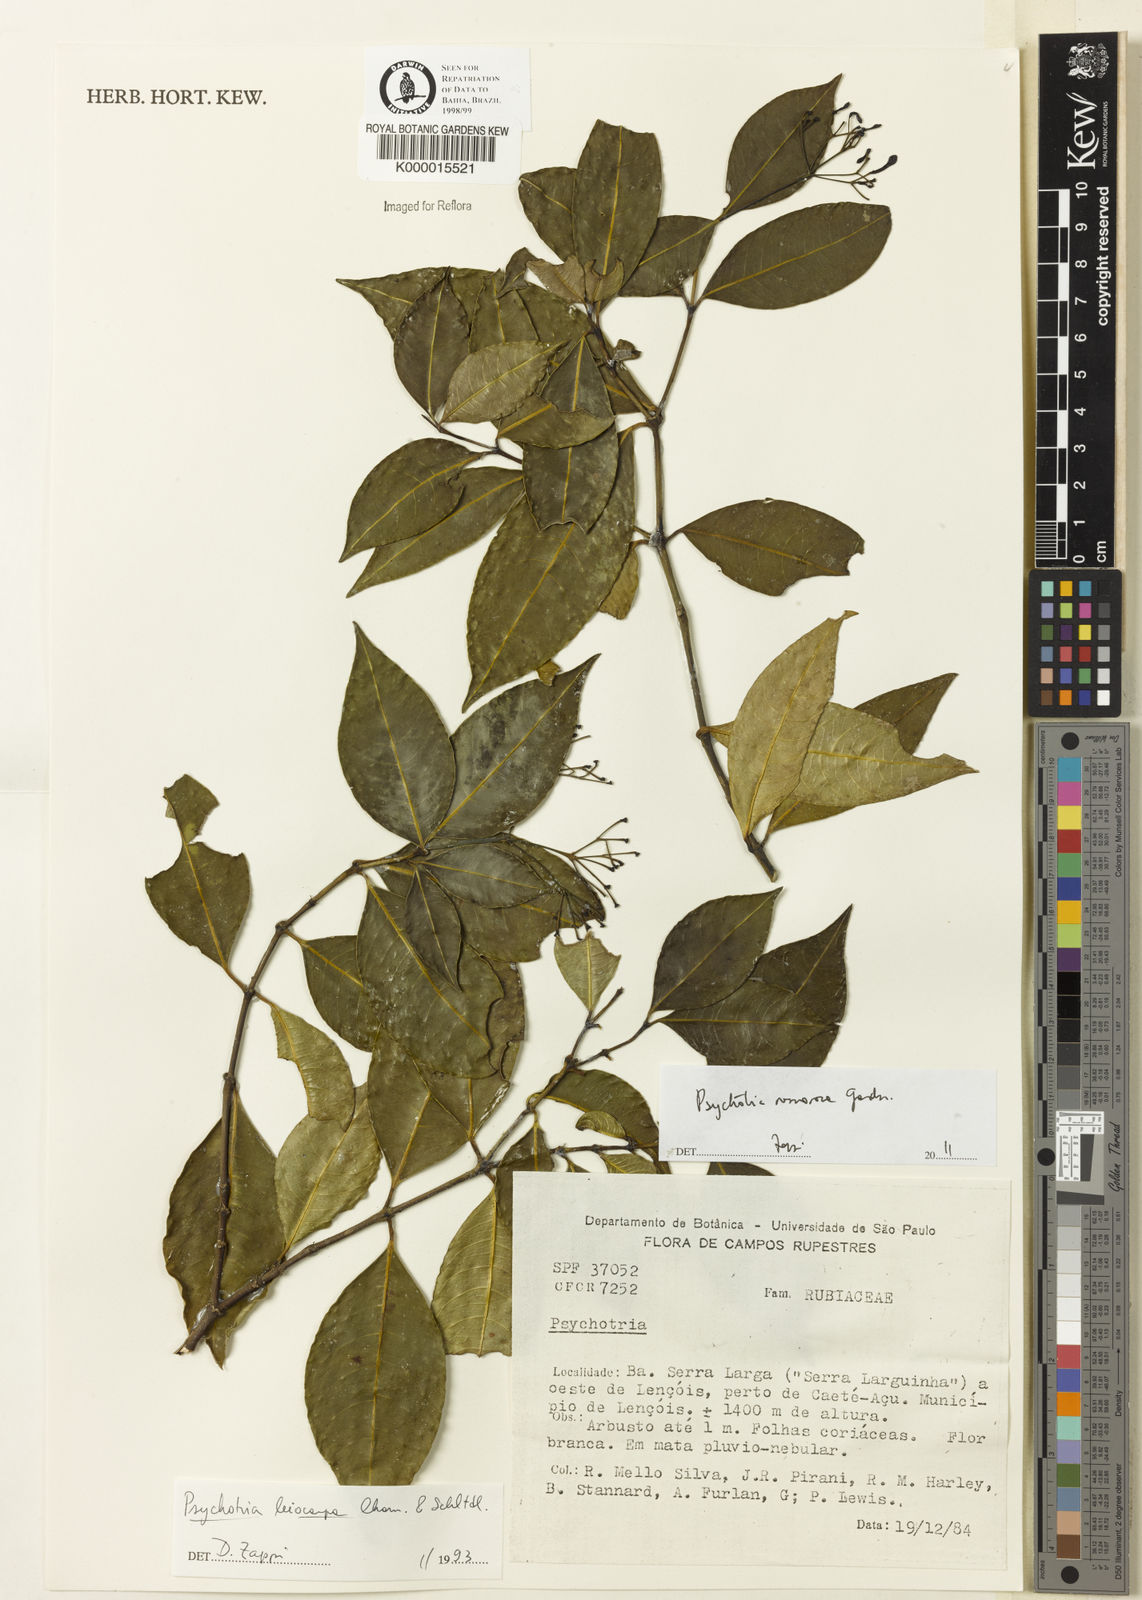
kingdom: Plantae
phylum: Tracheophyta
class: Magnoliopsida
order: Gentianales
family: Rubiaceae
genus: Psychotria
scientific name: Psychotria nemorosa
